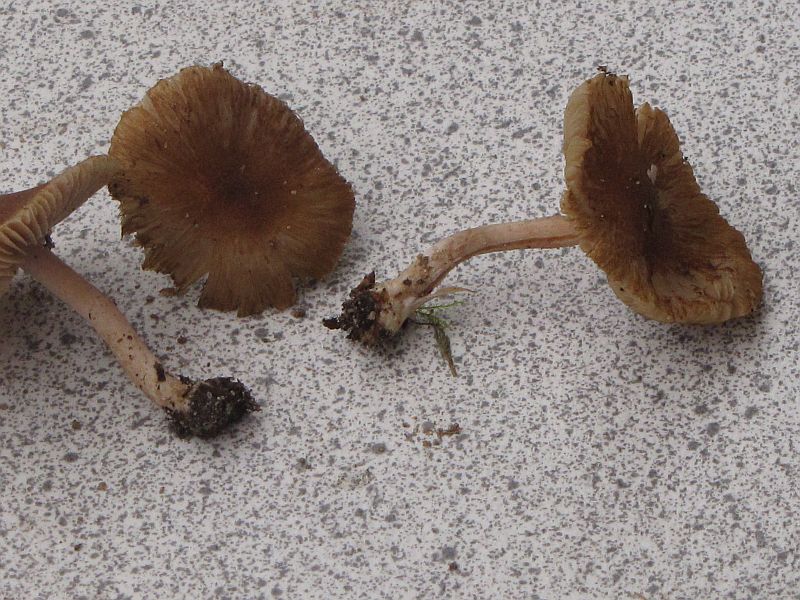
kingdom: Fungi
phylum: Basidiomycota
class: Agaricomycetes
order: Agaricales
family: Inocybaceae
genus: Inocybe
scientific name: Inocybe napipes
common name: roeknoldet trævlhat
